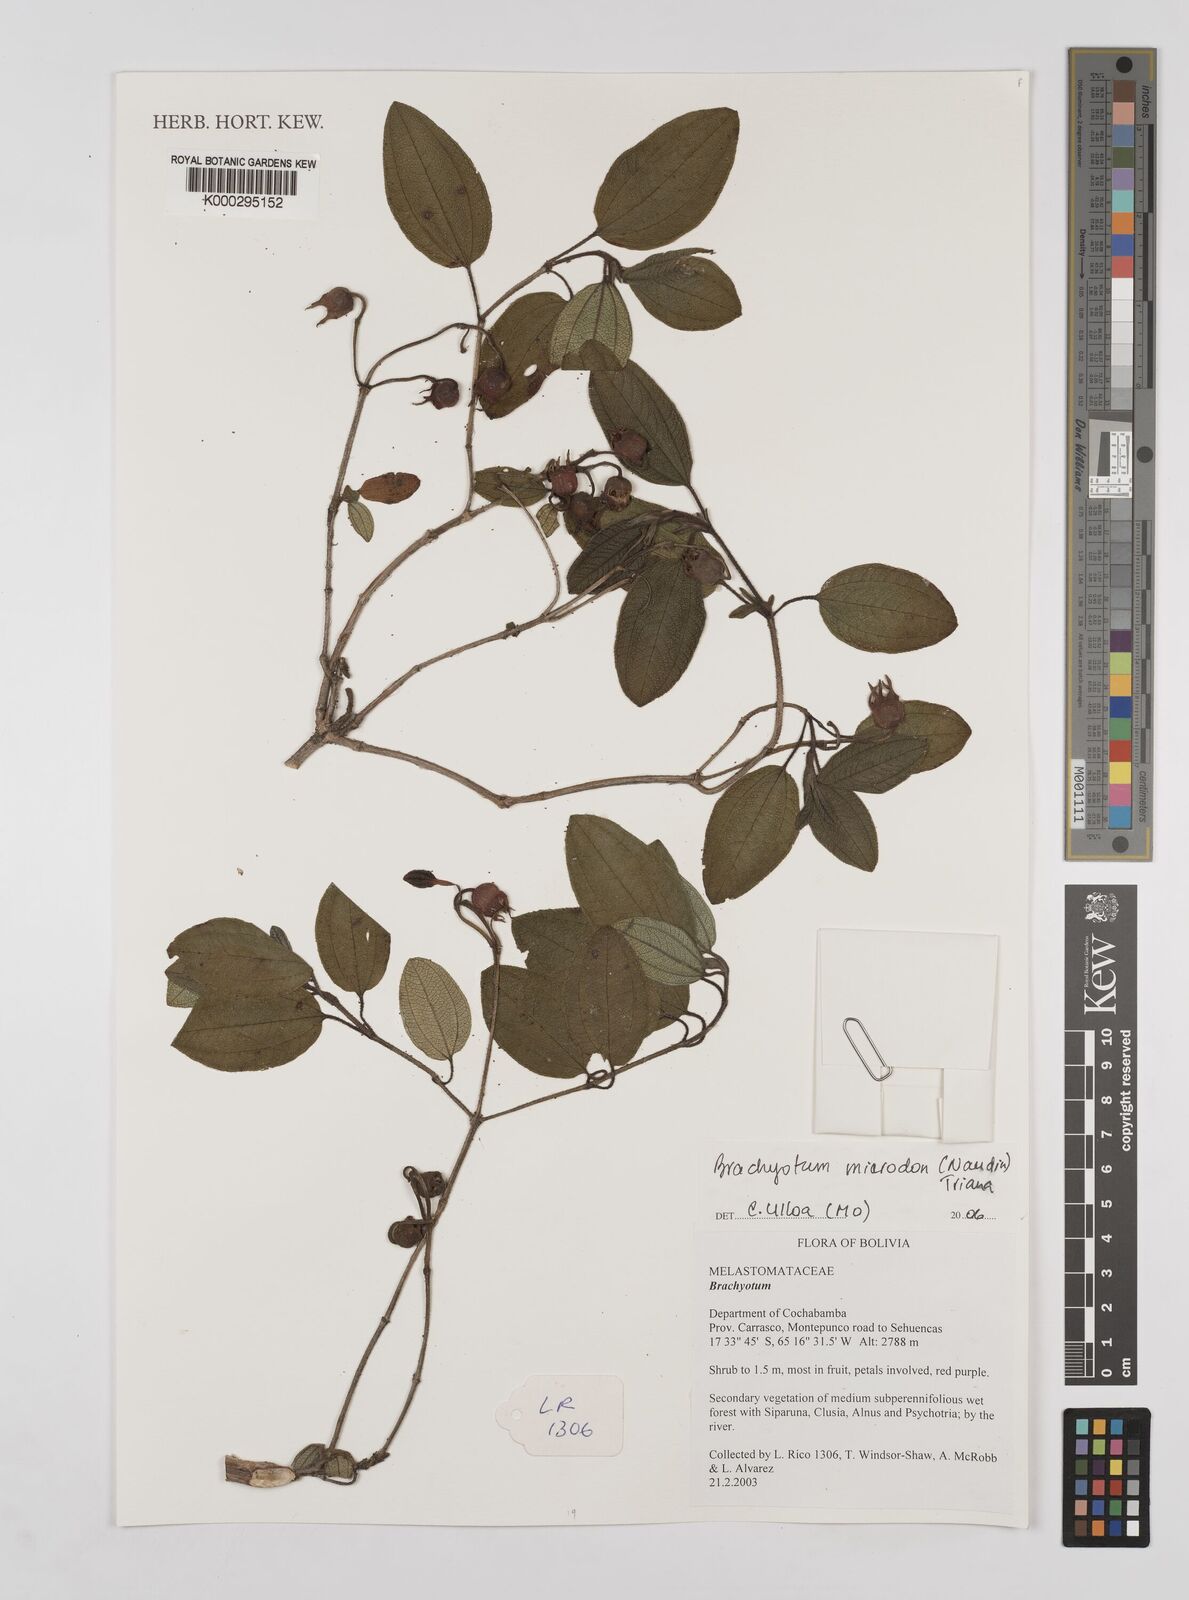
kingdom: Plantae
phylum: Tracheophyta
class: Magnoliopsida
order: Myrtales
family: Melastomataceae
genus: Brachyotum
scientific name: Brachyotum microdon
